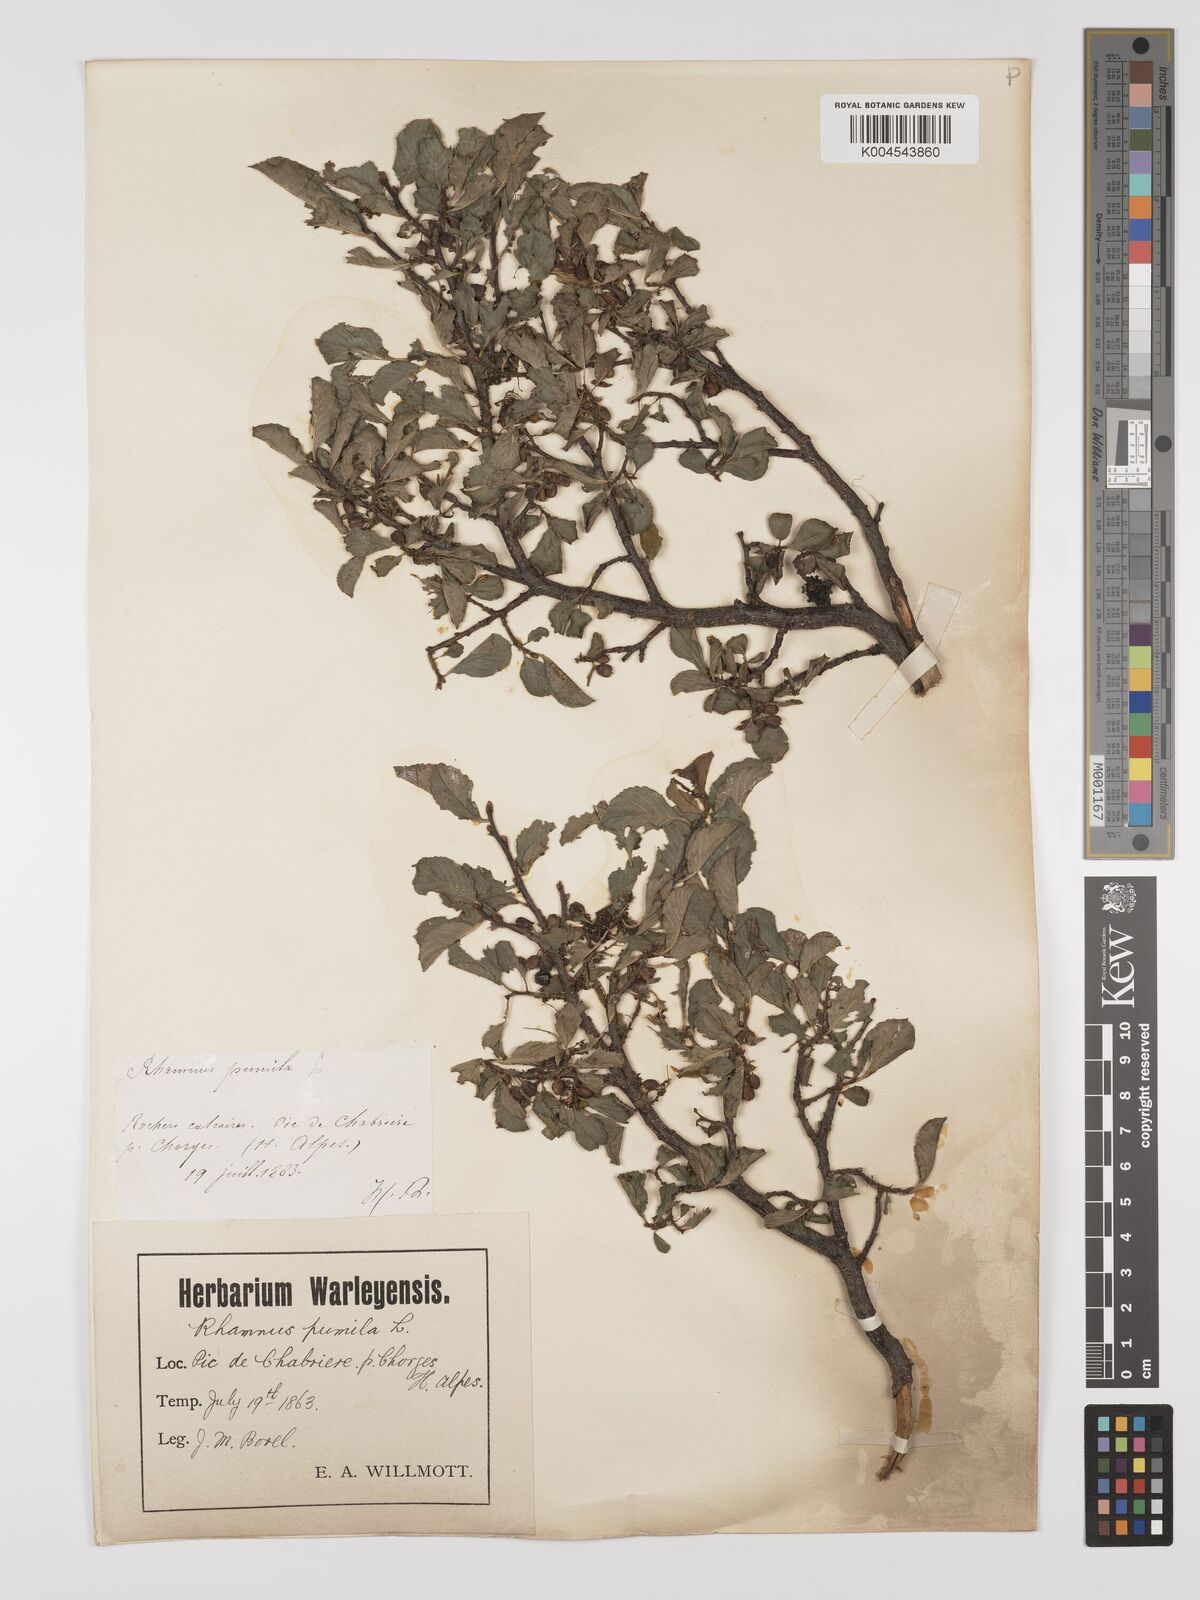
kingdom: Plantae
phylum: Tracheophyta
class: Magnoliopsida
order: Rosales
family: Rhamnaceae
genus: Rhamnus
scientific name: Rhamnus
